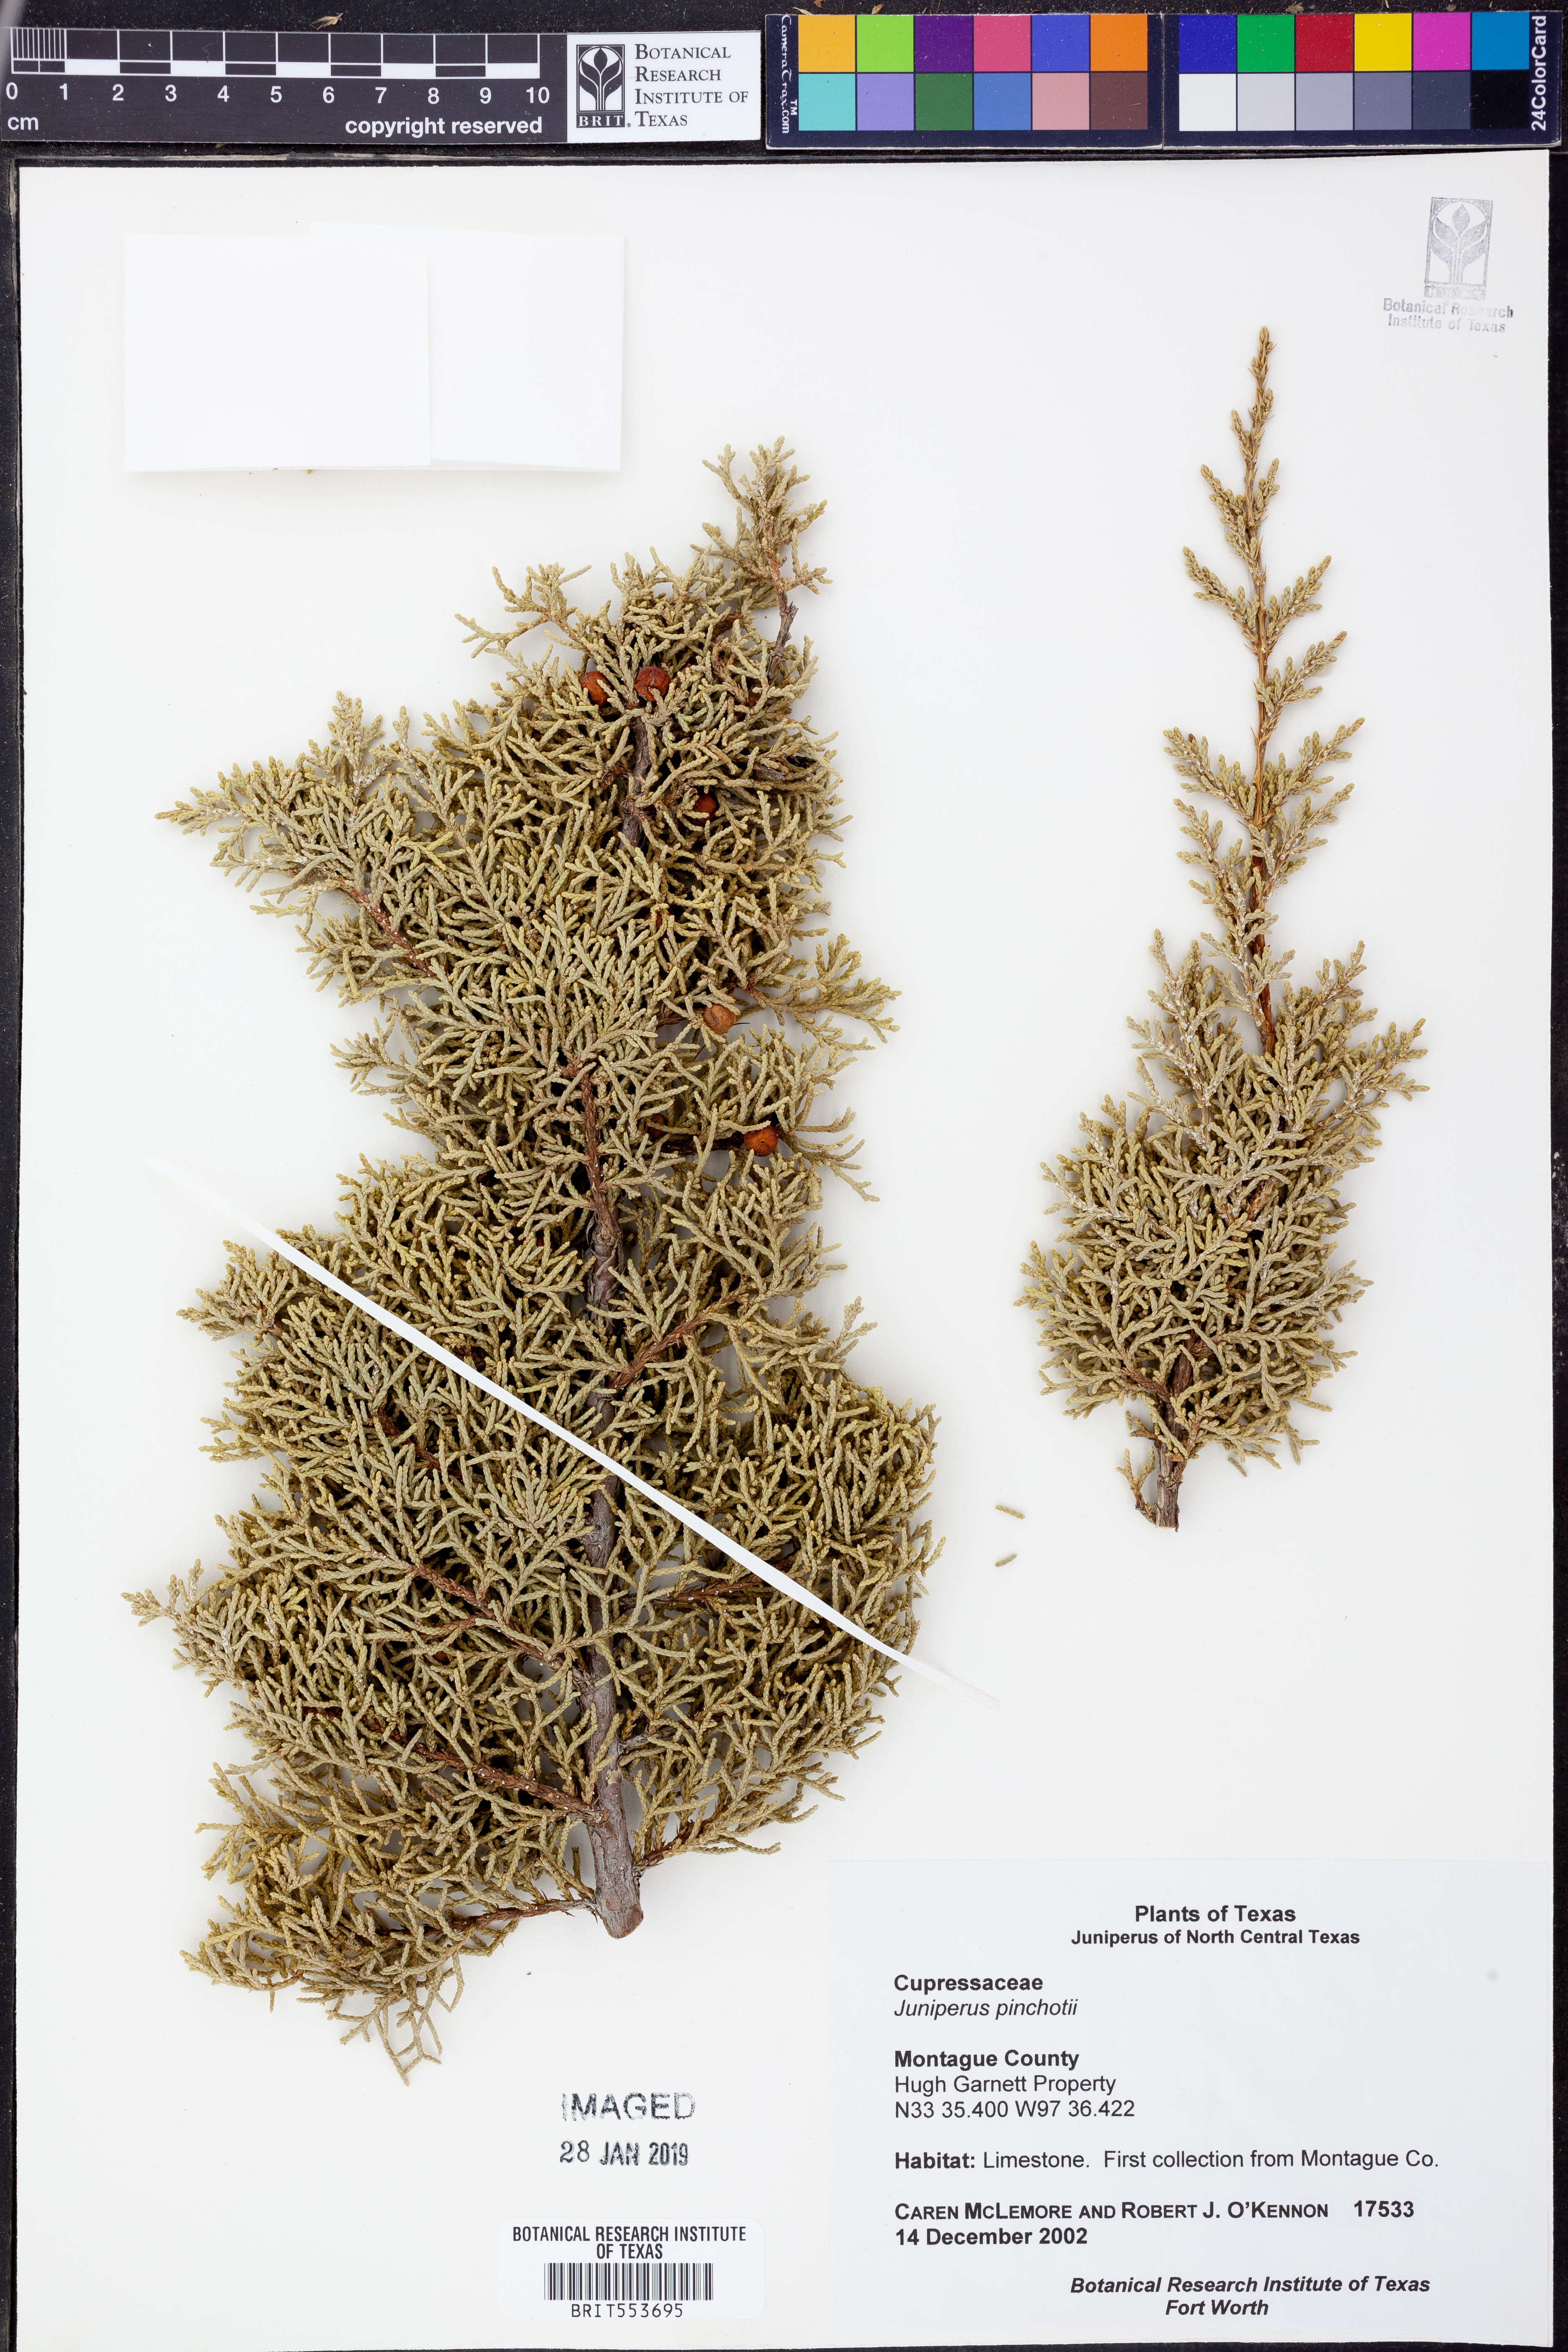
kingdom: Plantae
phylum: Tracheophyta
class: Pinopsida
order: Pinales
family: Cupressaceae
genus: Juniperus
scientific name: Juniperus pinchotii
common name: Pinchot juniper
